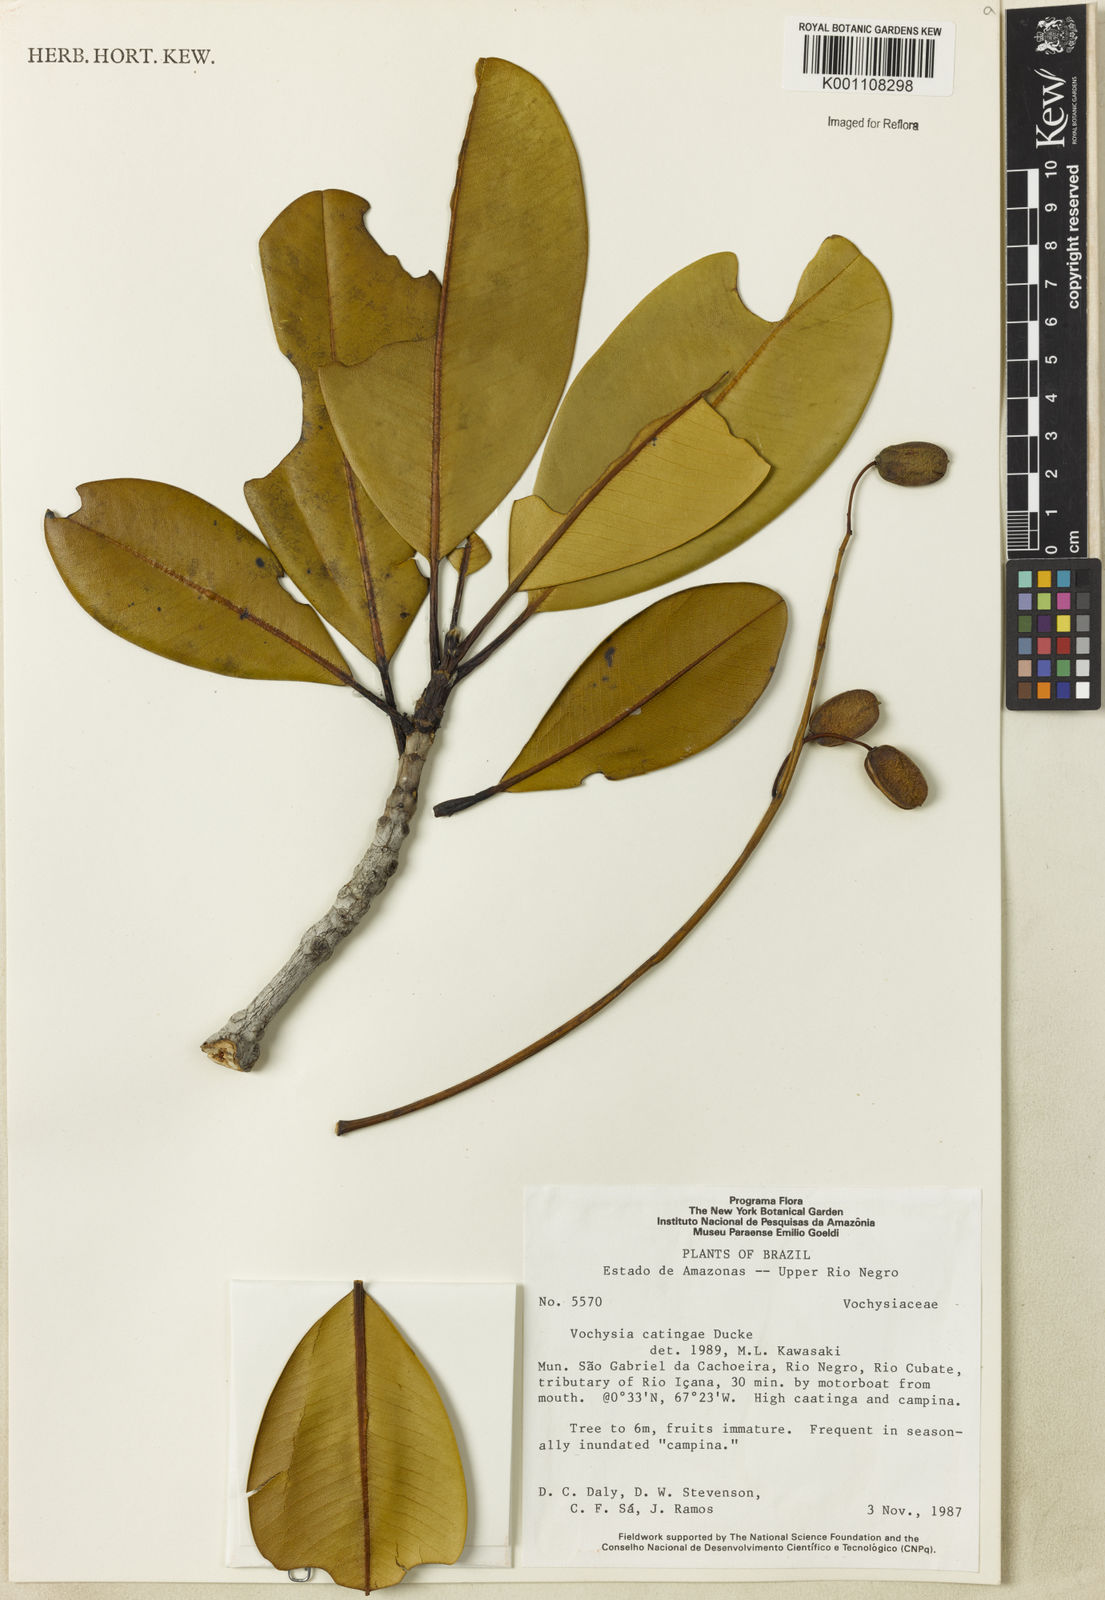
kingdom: Plantae
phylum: Tracheophyta
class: Magnoliopsida
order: Myrtales
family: Vochysiaceae
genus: Vochysia
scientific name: Vochysia catingae
